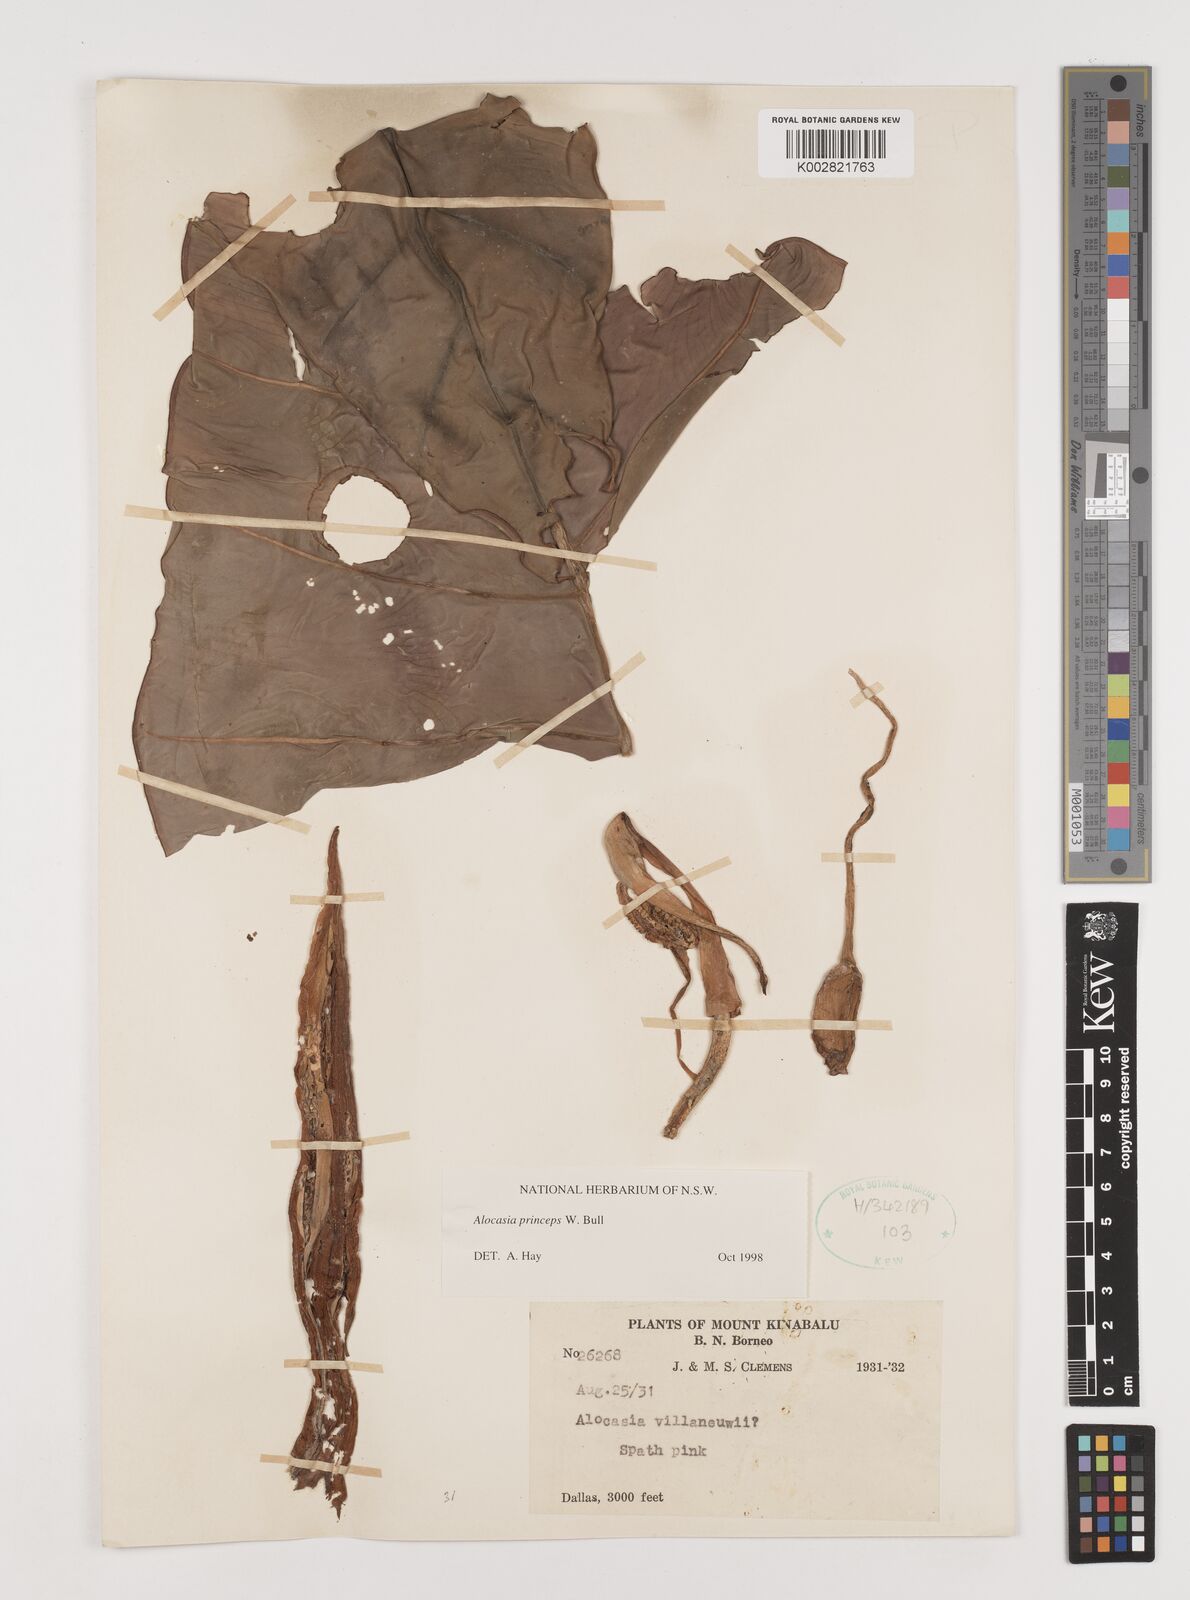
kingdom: Plantae
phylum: Tracheophyta
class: Liliopsida
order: Alismatales
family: Araceae
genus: Alocasia
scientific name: Alocasia princeps
